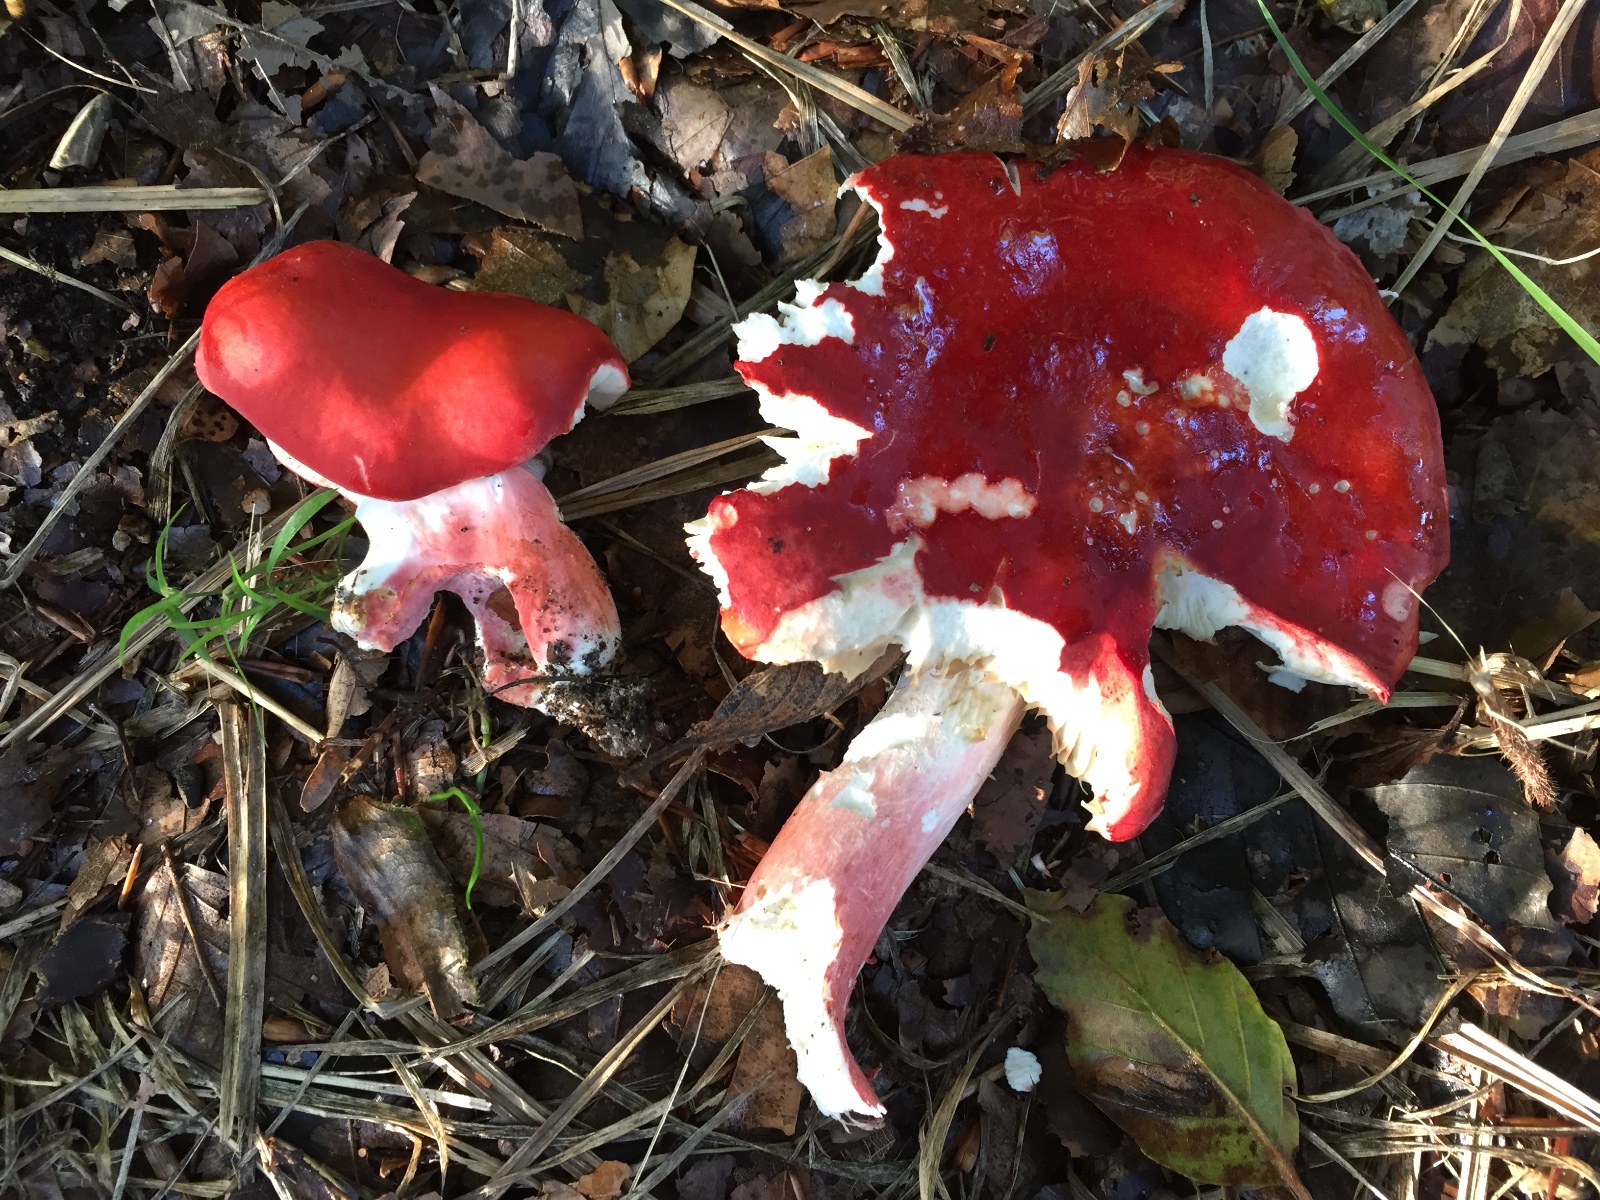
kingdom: Fungi
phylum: Basidiomycota
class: Agaricomycetes
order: Russulales
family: Russulaceae
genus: Russula
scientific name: Russula rosea
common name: fastkødet skørhat
